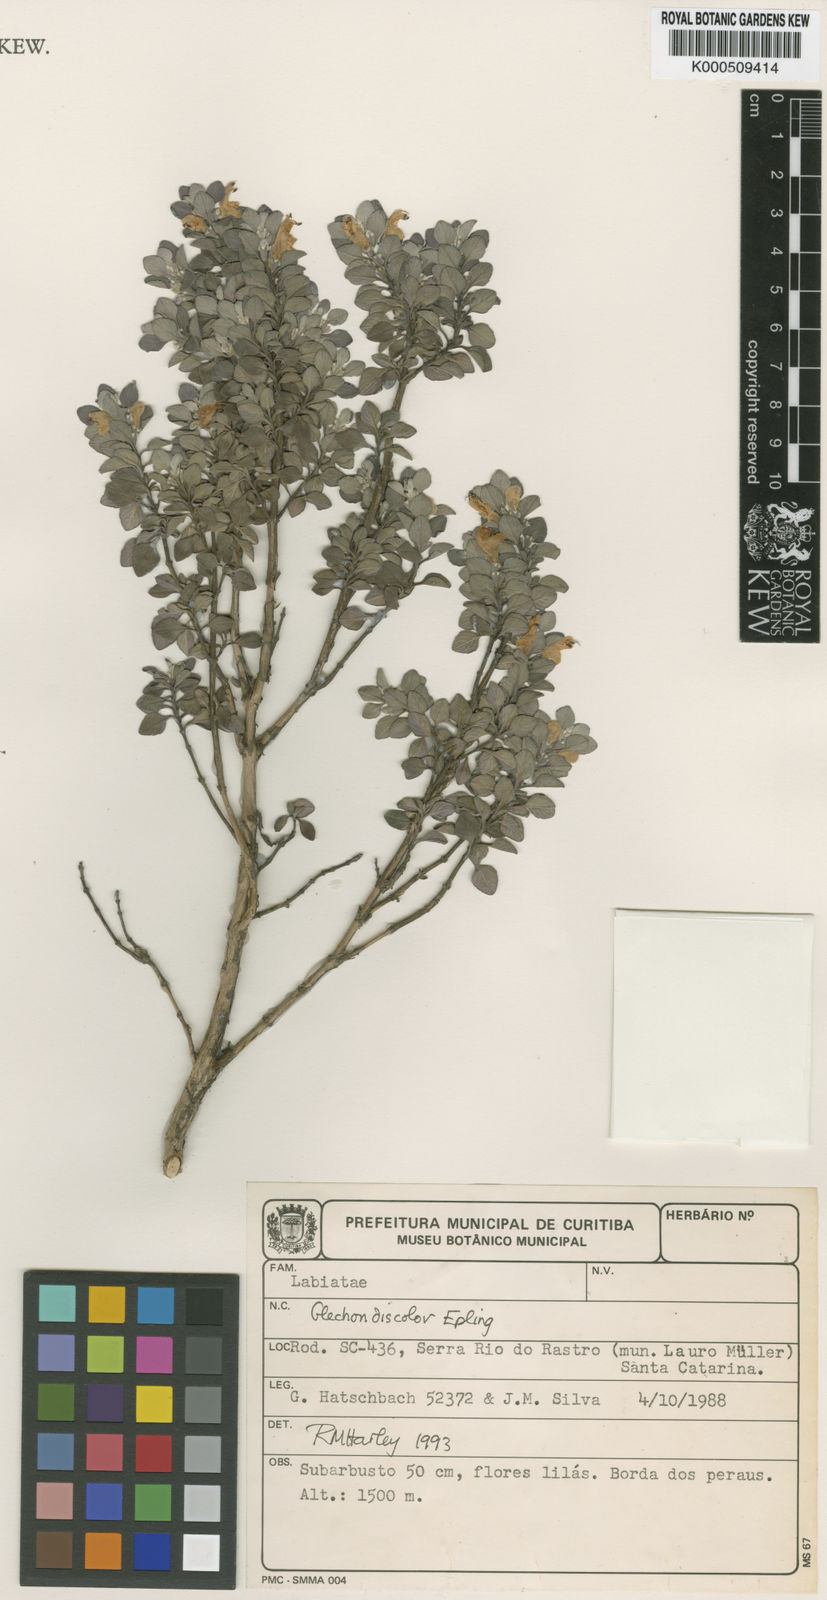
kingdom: Plantae
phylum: Tracheophyta
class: Magnoliopsida
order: Lamiales
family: Lamiaceae
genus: Glechon
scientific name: Glechon discolor
